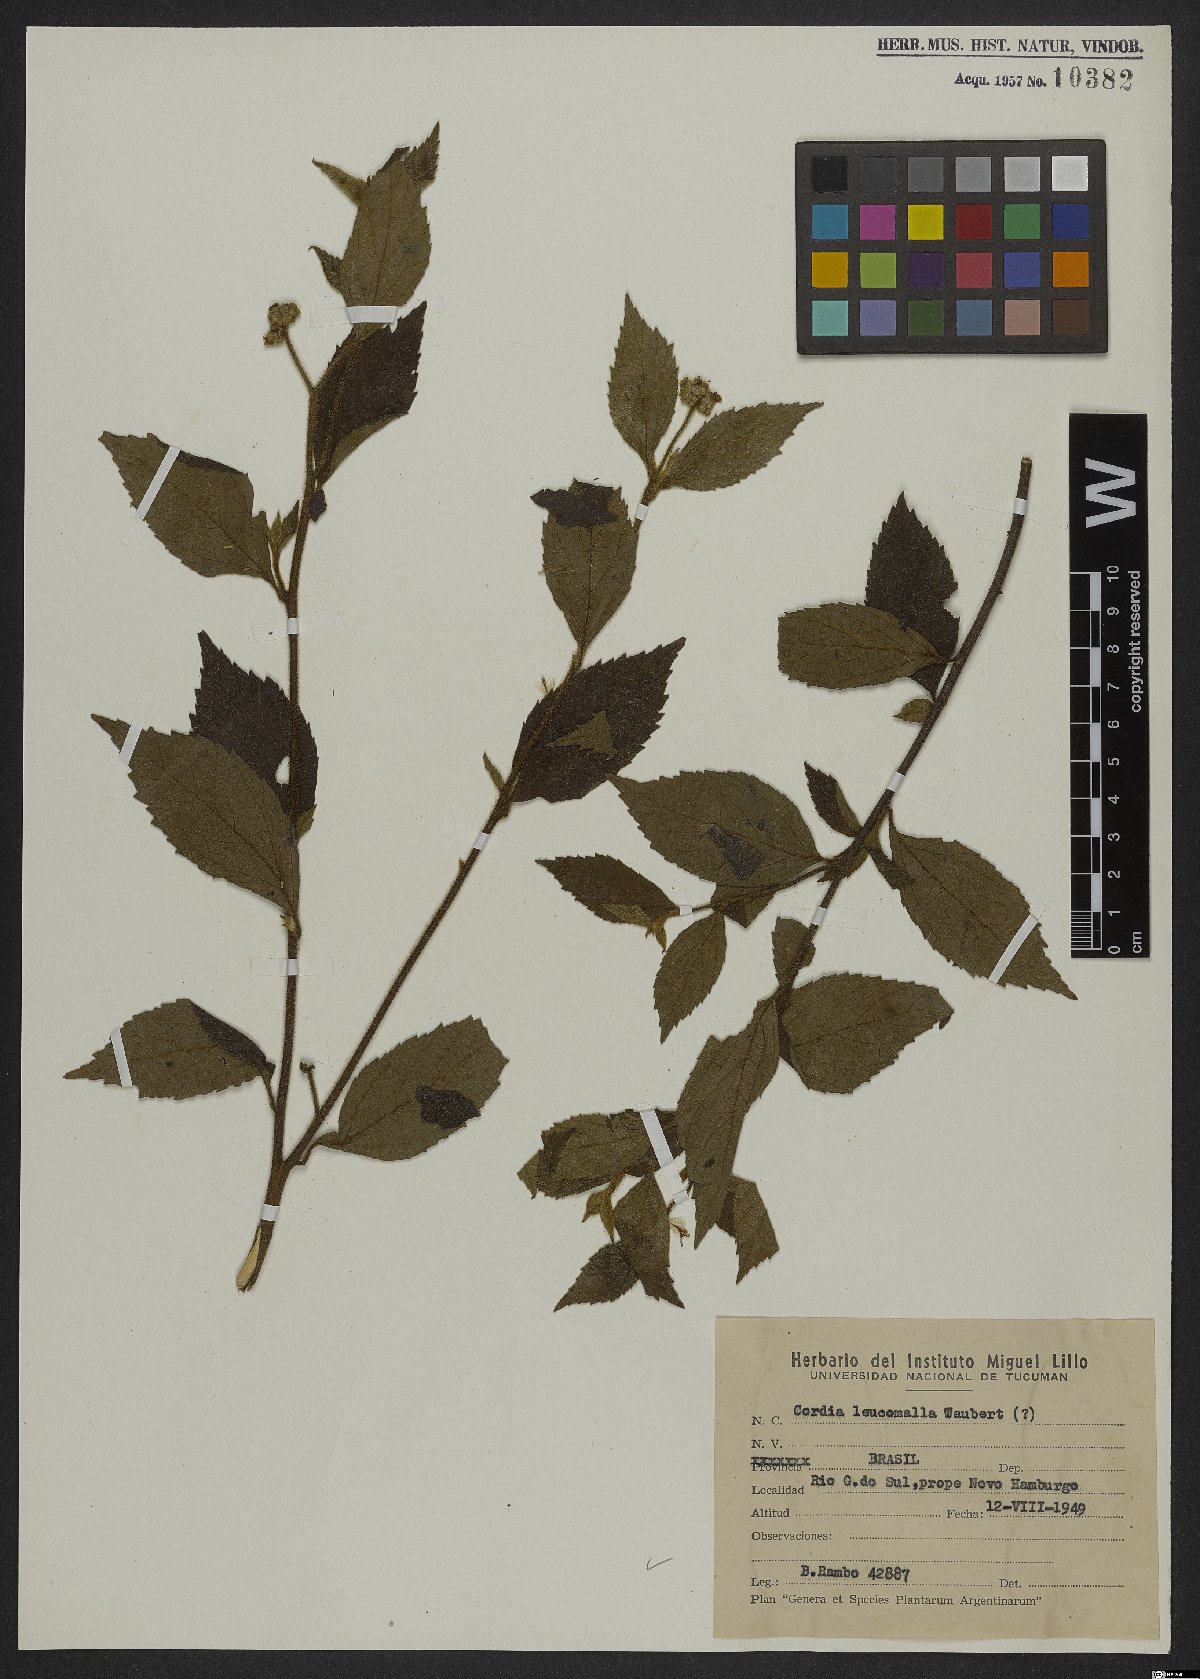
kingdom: Plantae
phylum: Tracheophyta
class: Magnoliopsida
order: Boraginales
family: Cordiaceae
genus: Varronia
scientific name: Varronia leucomalla
